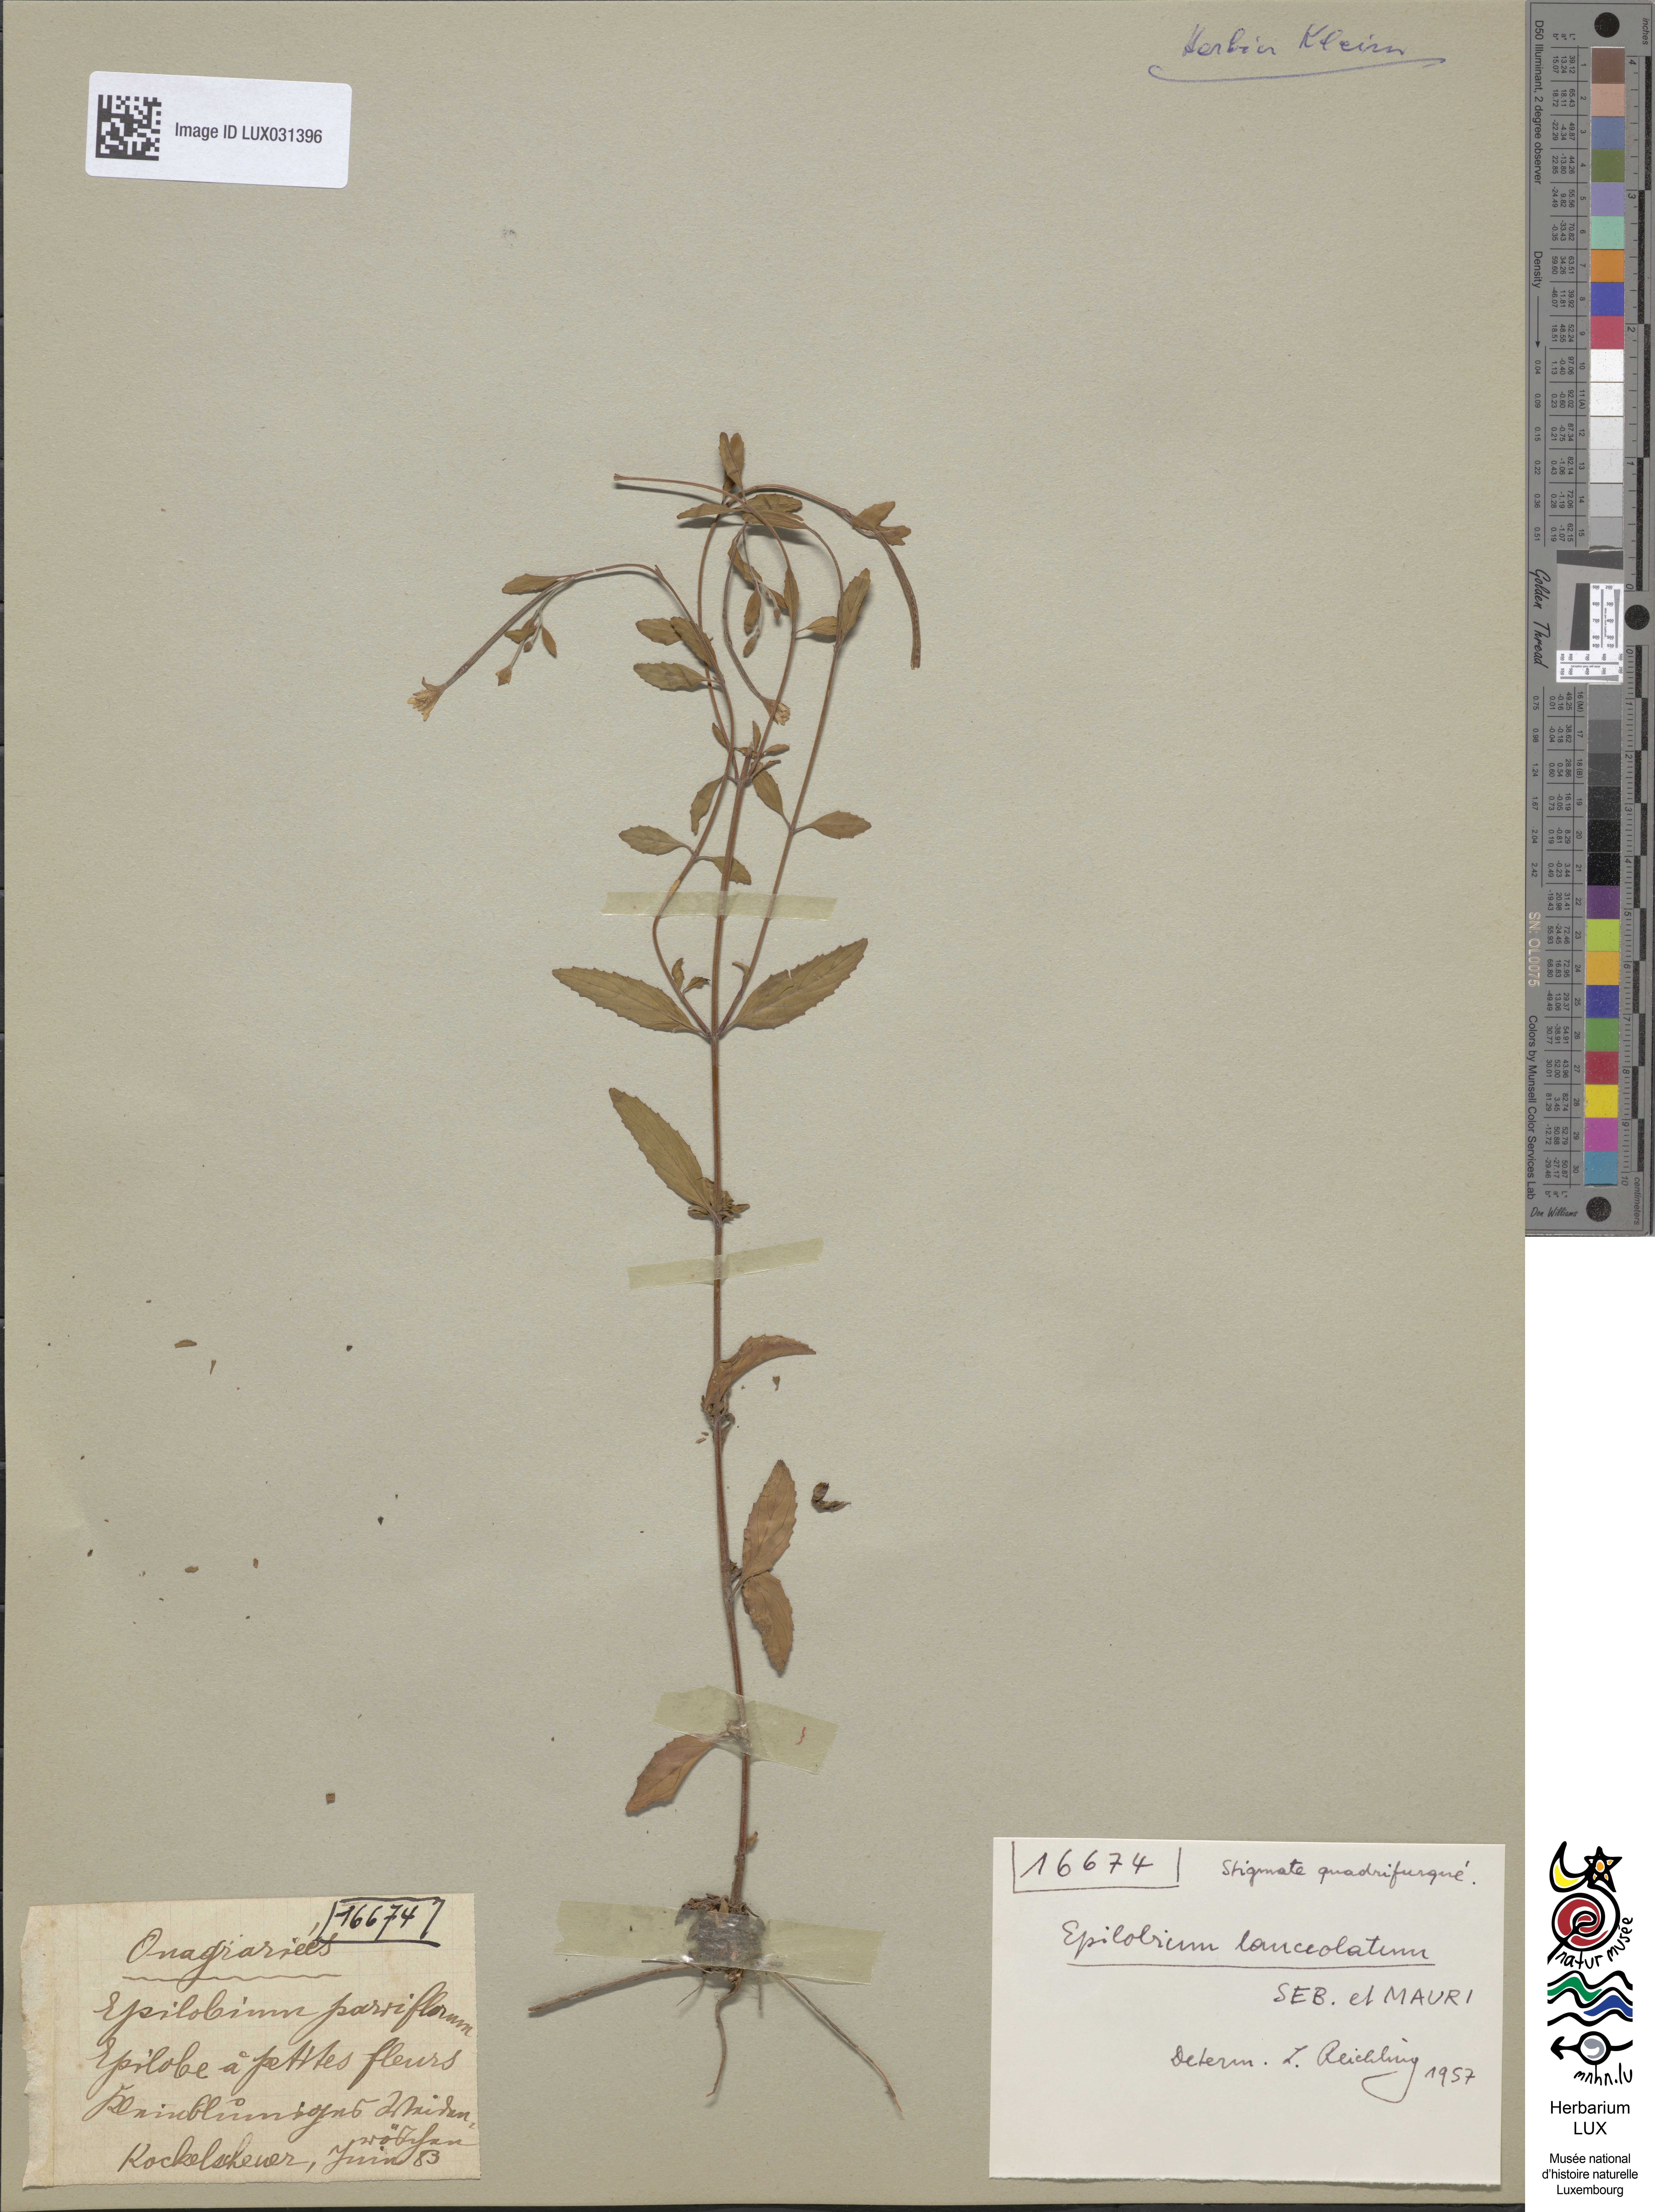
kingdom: Plantae
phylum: Tracheophyta
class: Magnoliopsida
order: Myrtales
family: Onagraceae
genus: Epilobium
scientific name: Epilobium lanceolatum
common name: Spear-leaved willowherb
